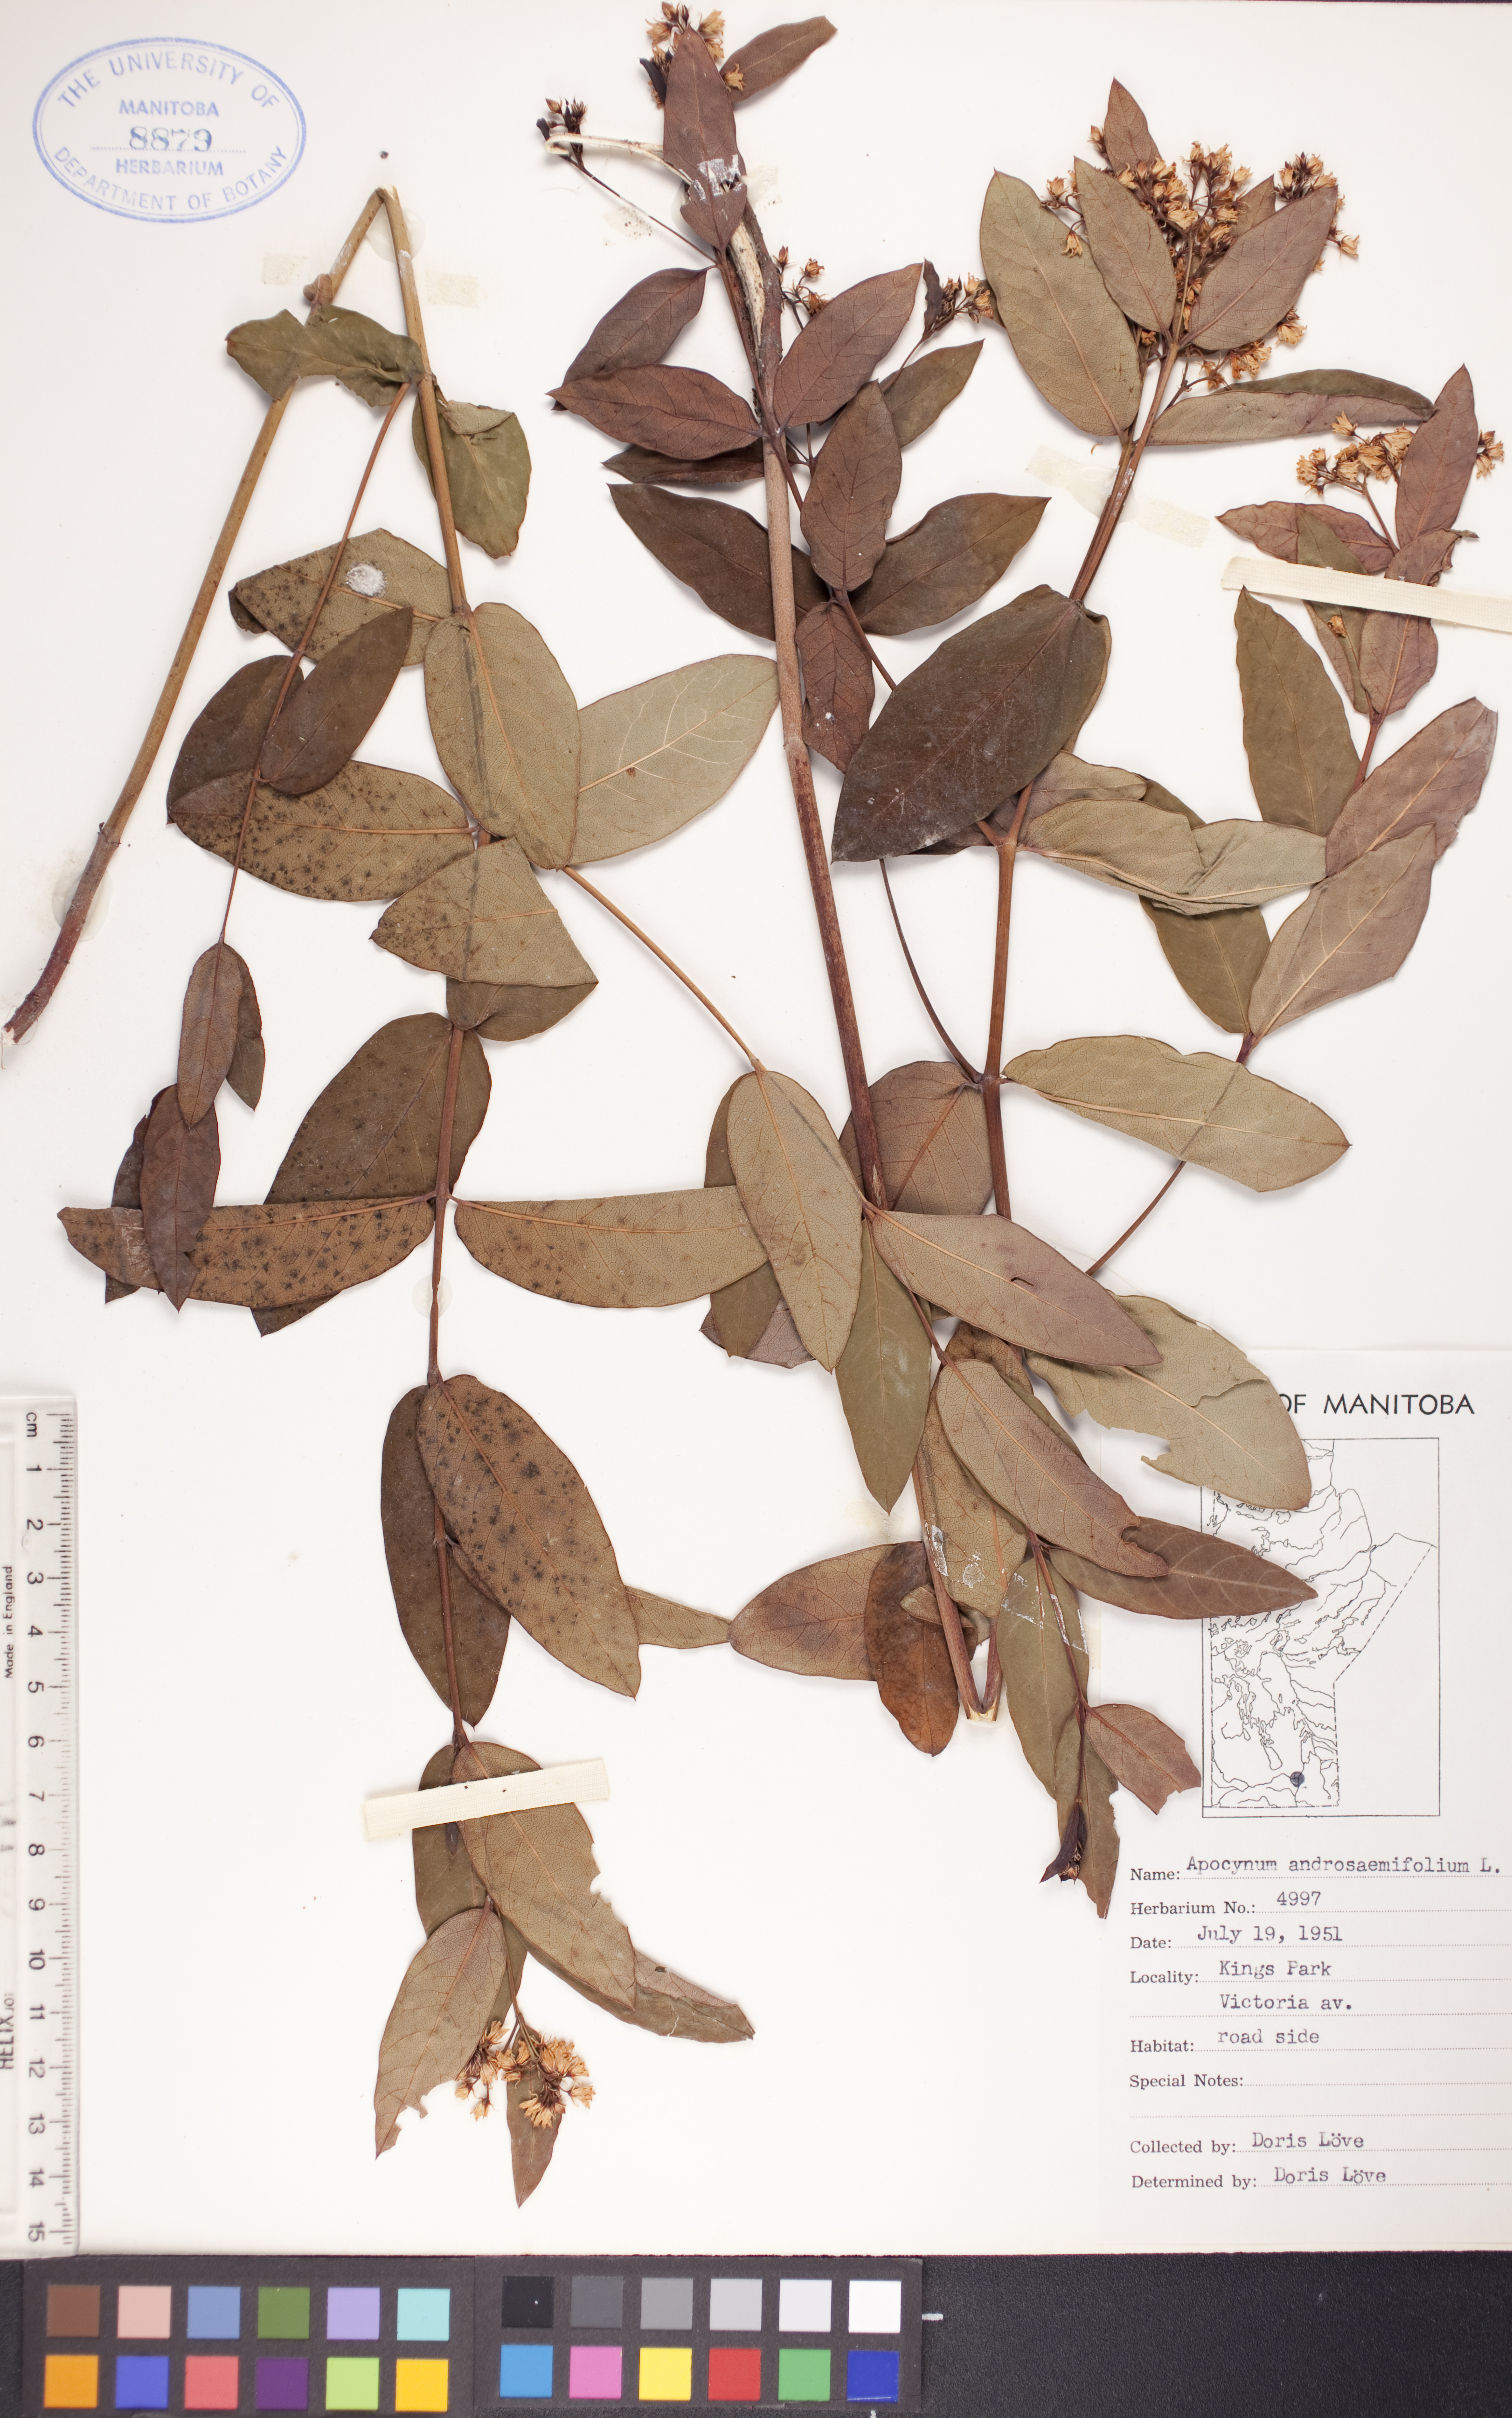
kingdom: Plantae
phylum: Tracheophyta
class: Magnoliopsida
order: Gentianales
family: Apocynaceae
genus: Apocynum
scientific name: Apocynum androsaemifolium
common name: Spreading dogbane
